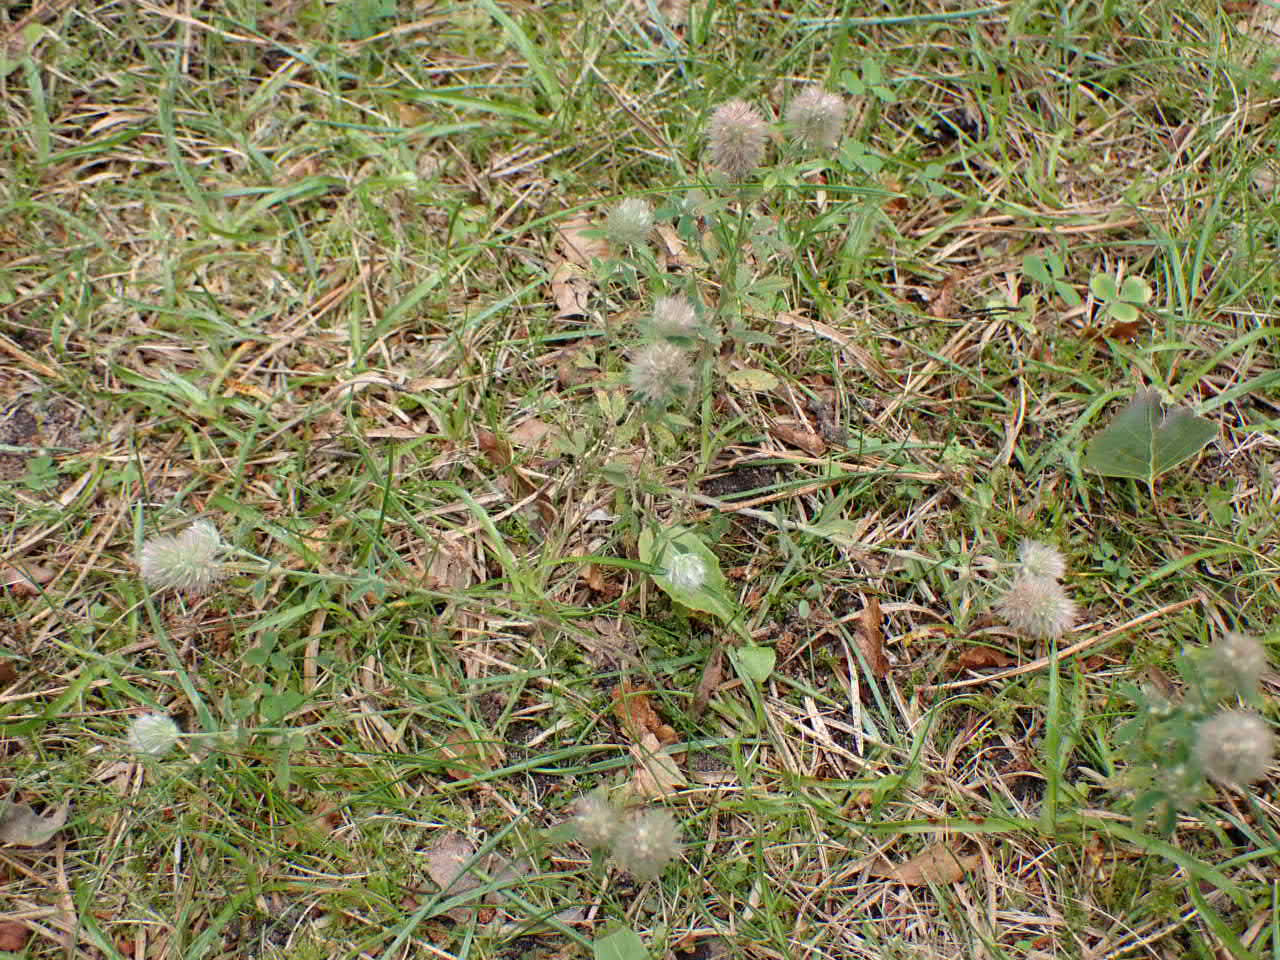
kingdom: Plantae
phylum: Tracheophyta
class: Magnoliopsida
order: Fabales
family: Fabaceae
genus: Trifolium
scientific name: Trifolium arvense
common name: Hare-kløver
